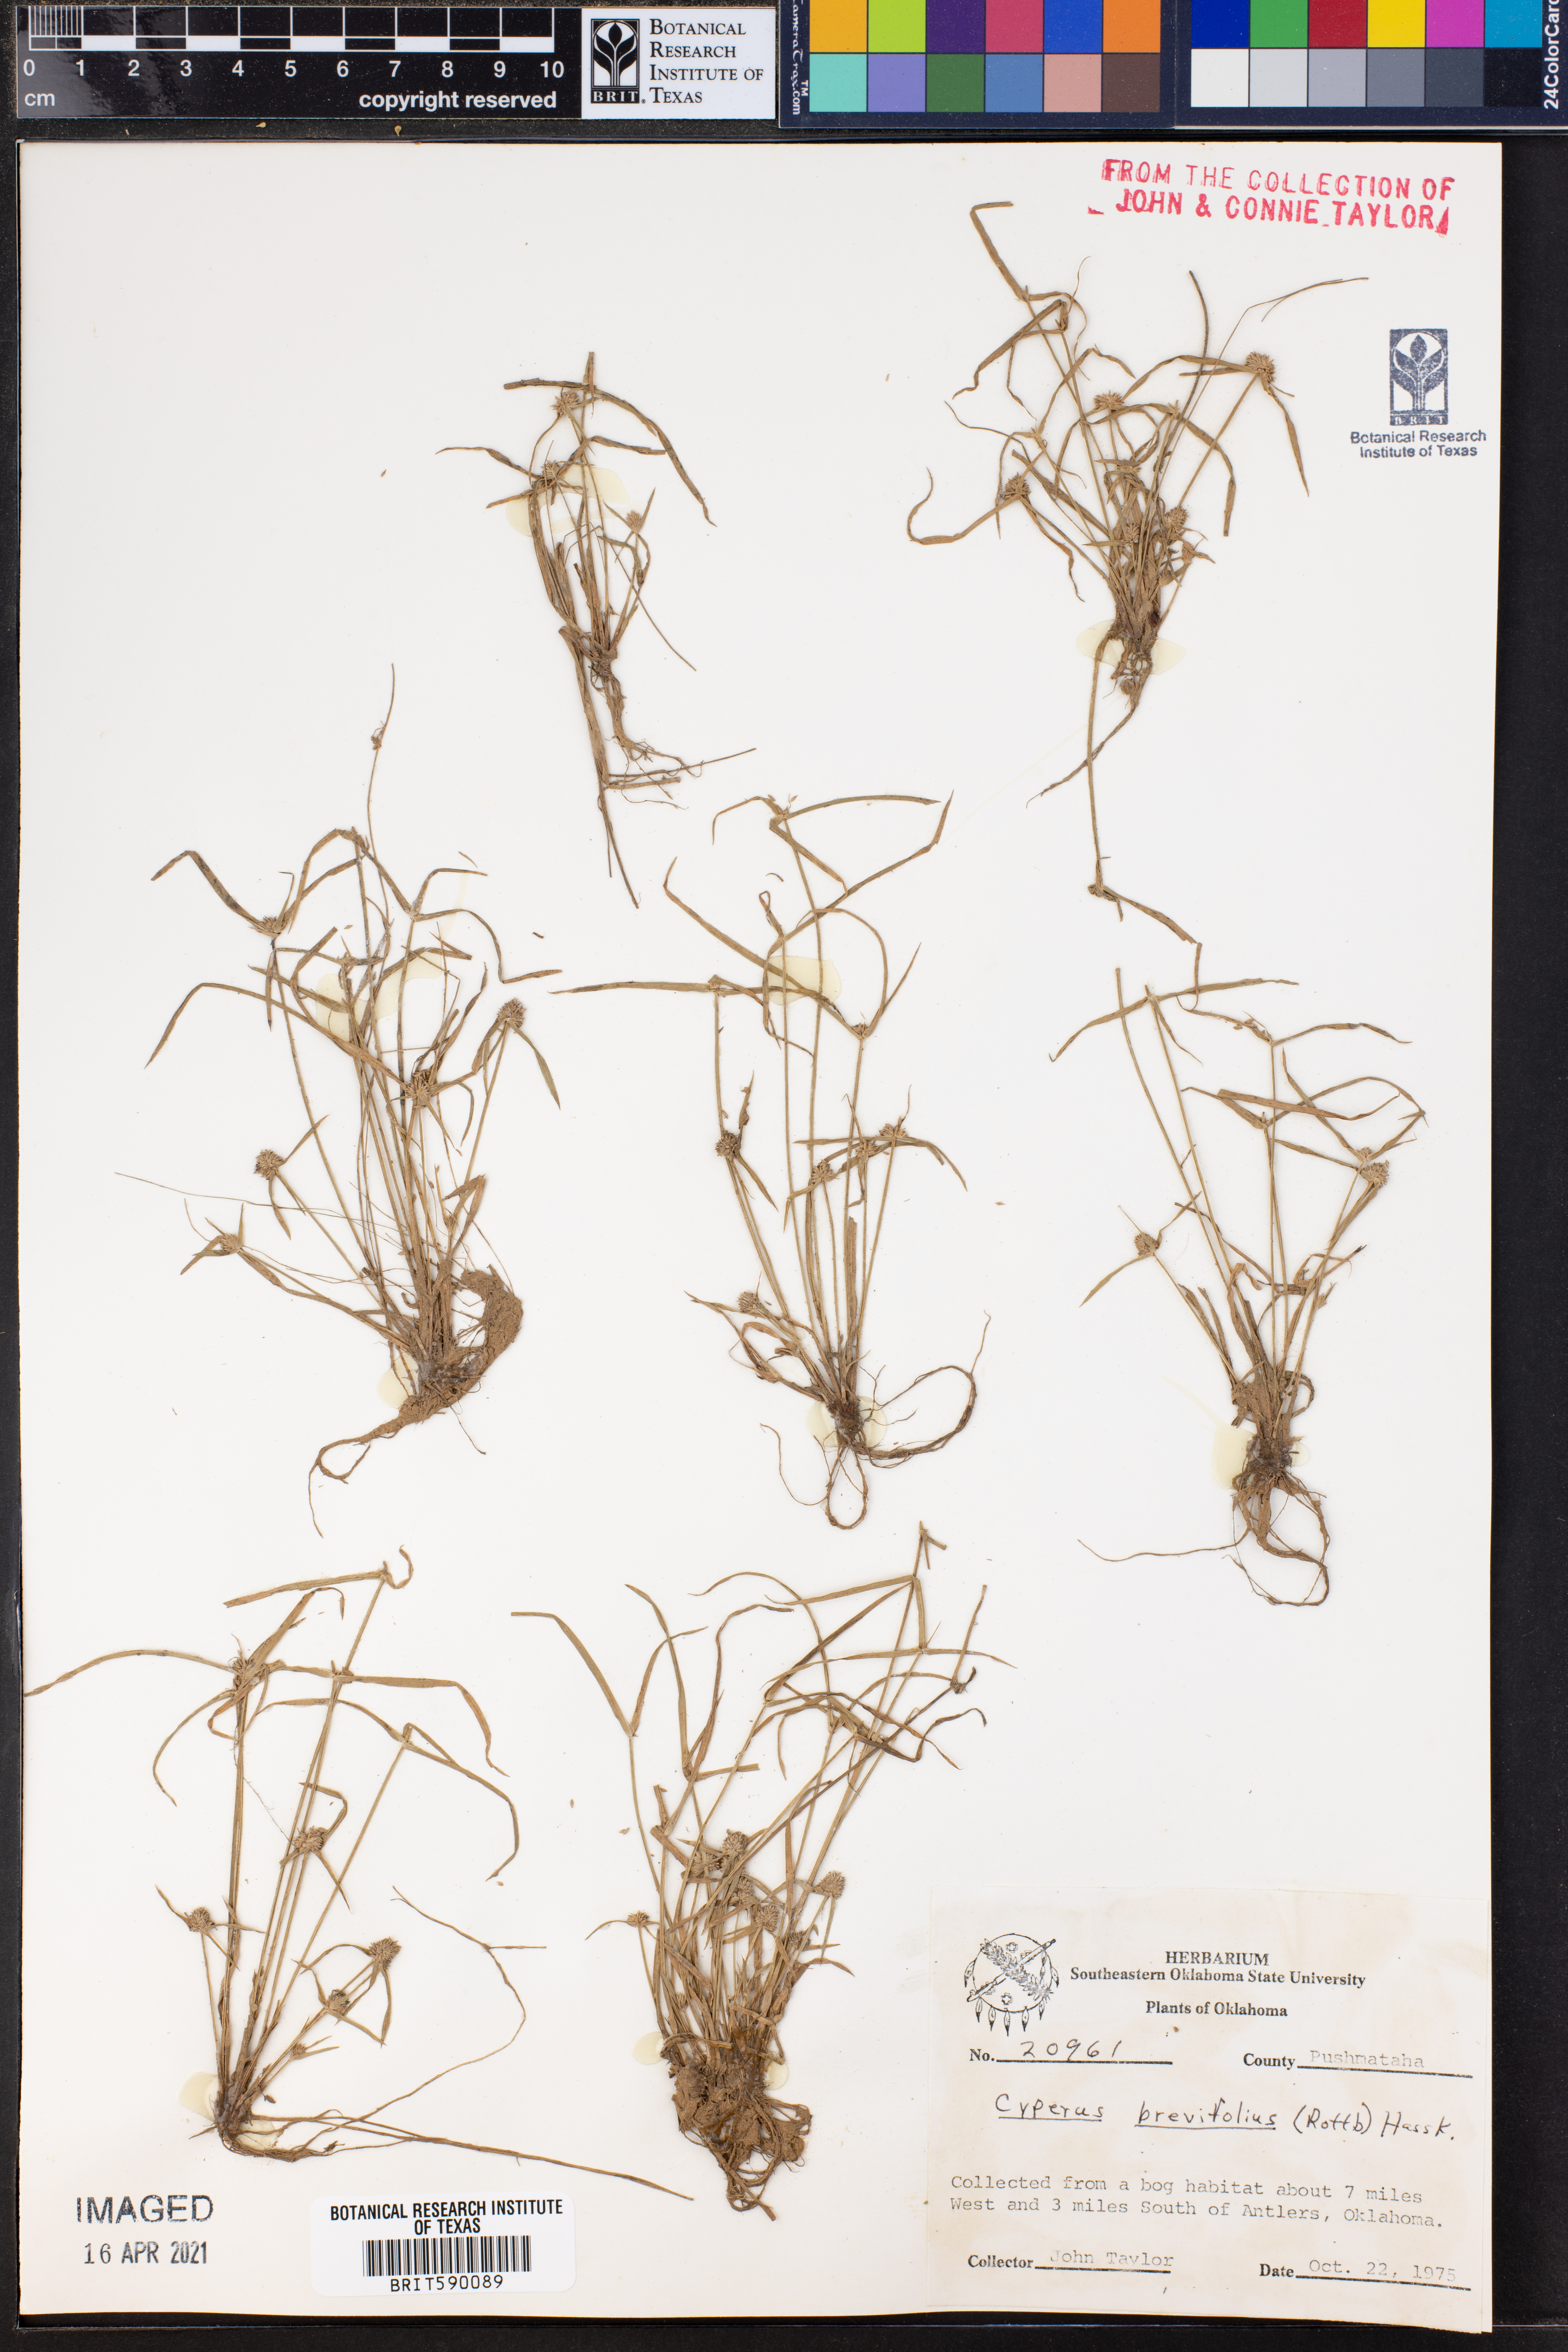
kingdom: Plantae
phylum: Tracheophyta
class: Liliopsida
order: Poales
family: Cyperaceae
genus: Cyperus
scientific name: Cyperus brevifolius
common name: Globe kyllinga
